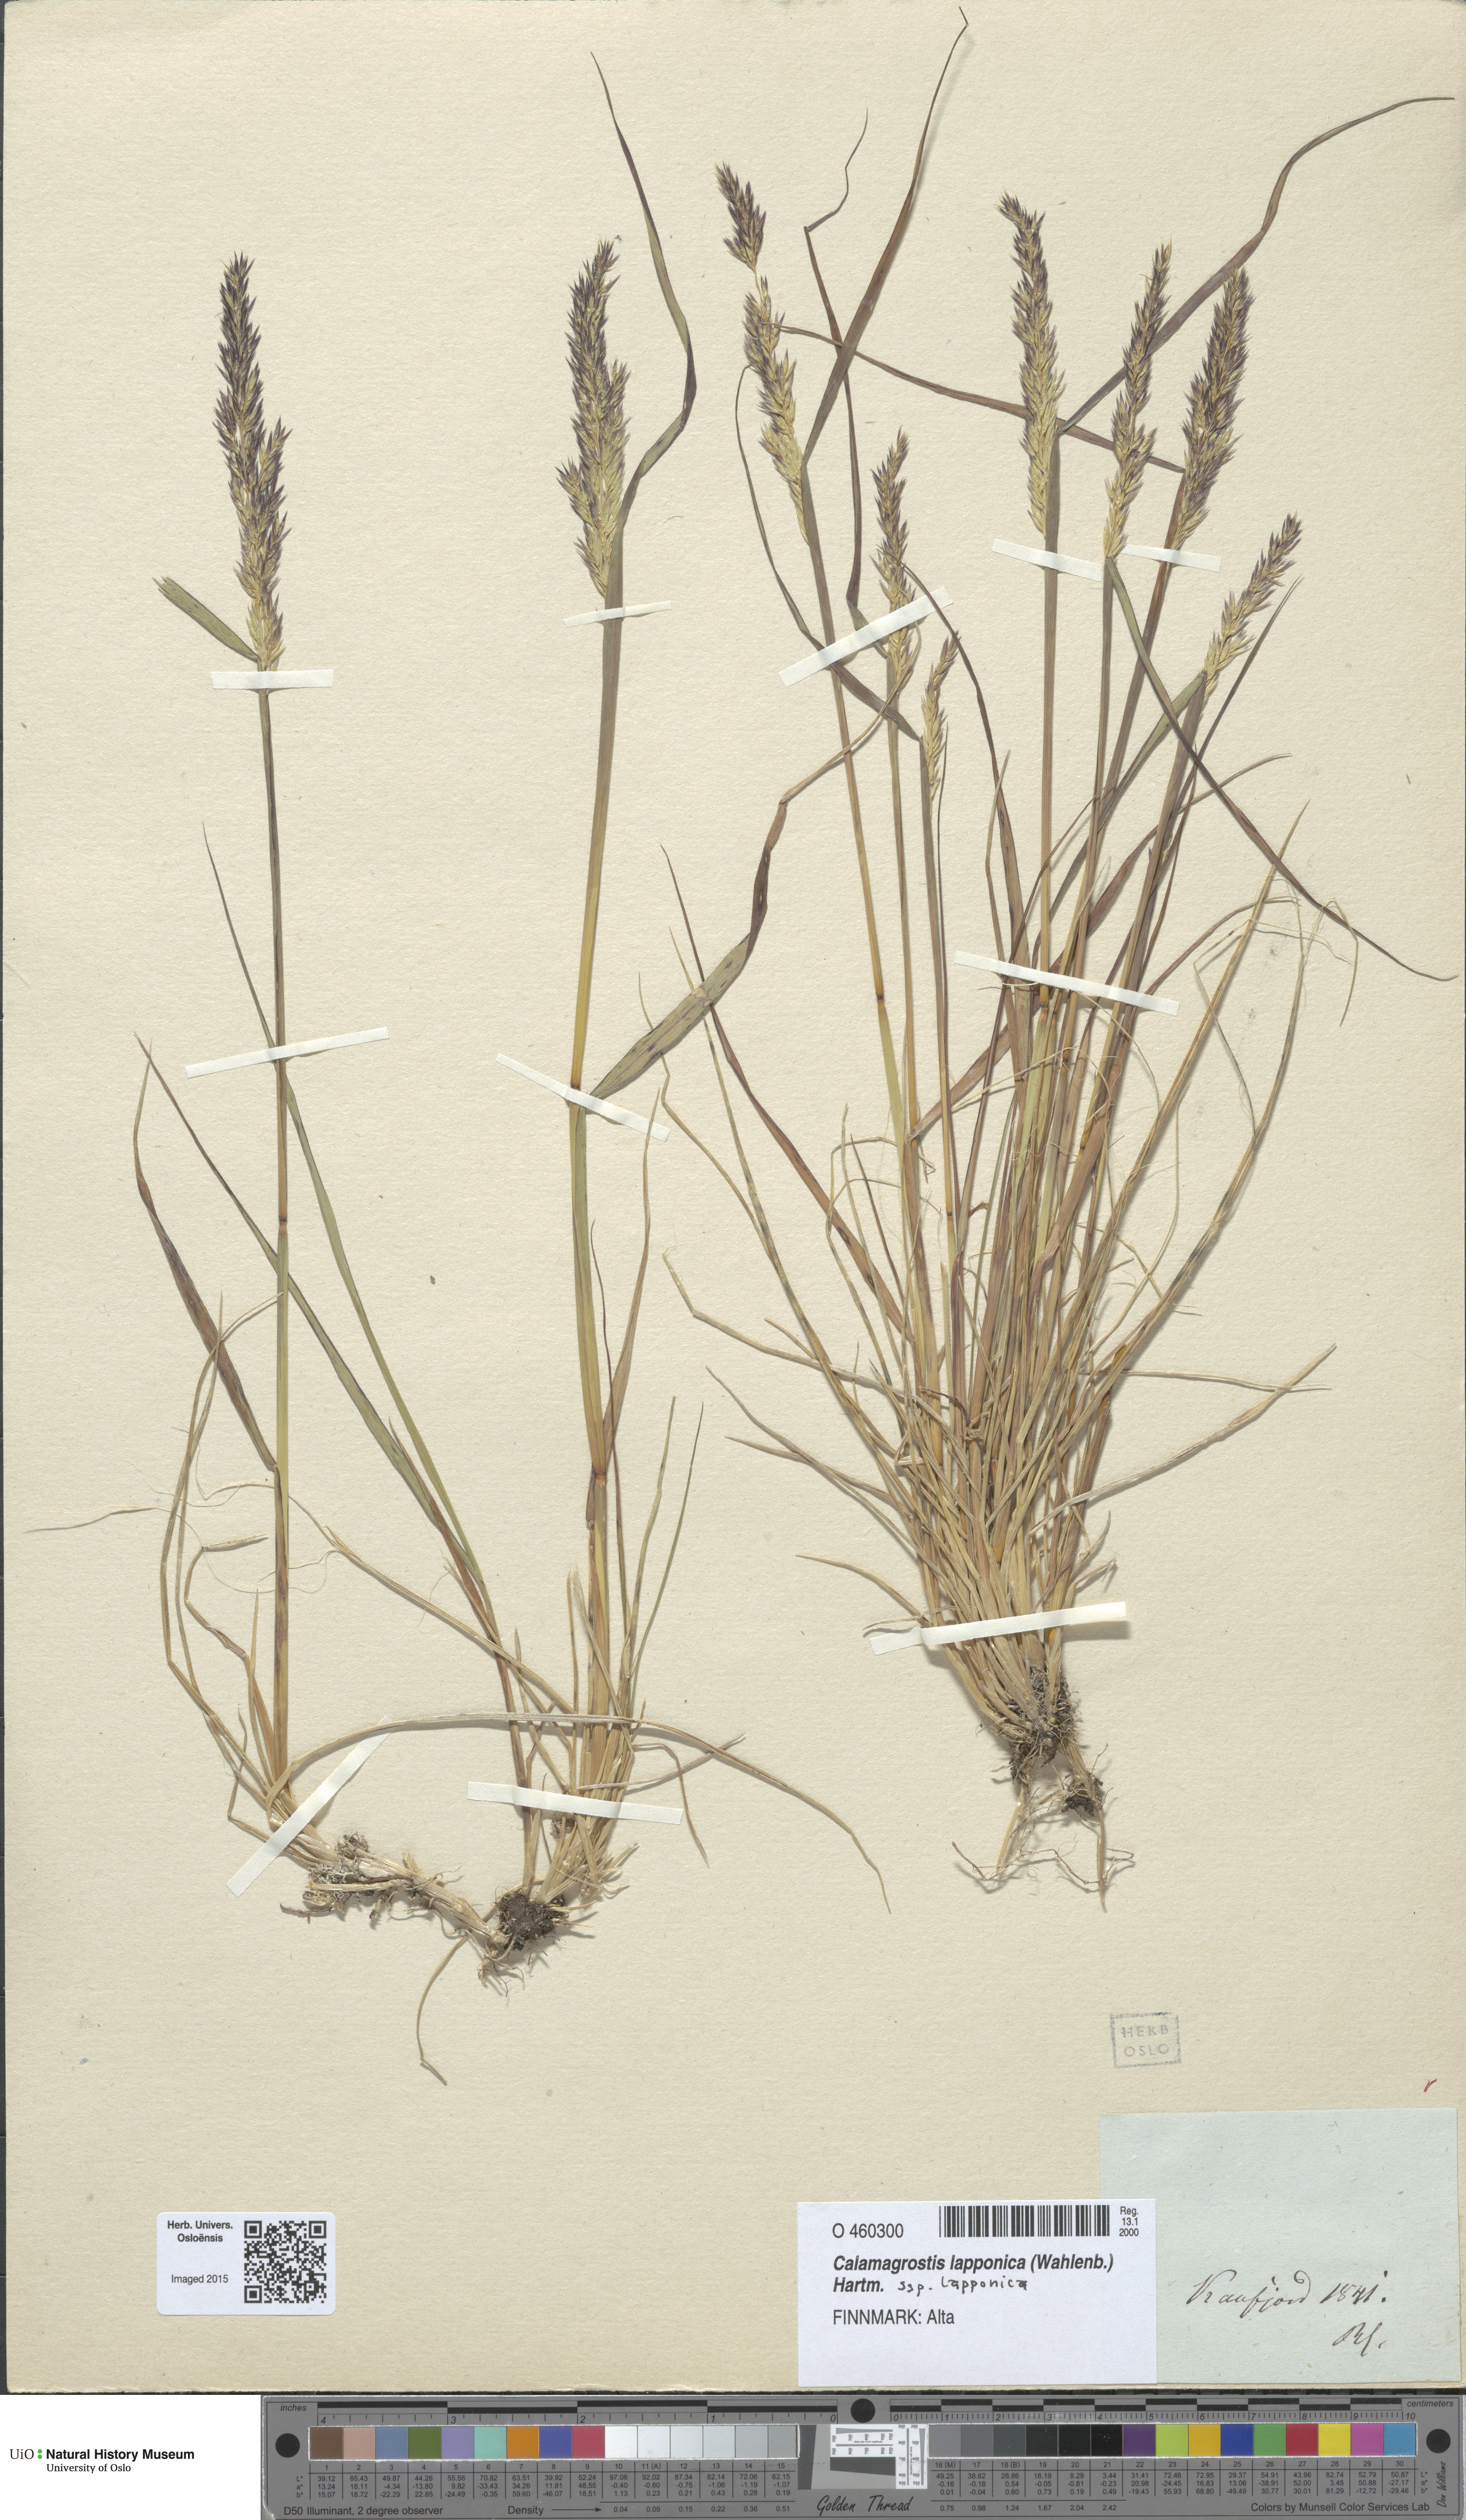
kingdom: Plantae
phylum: Tracheophyta
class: Liliopsida
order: Poales
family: Poaceae
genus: Calamagrostis
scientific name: Calamagrostis lapponica
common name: Lapland reedgrass
